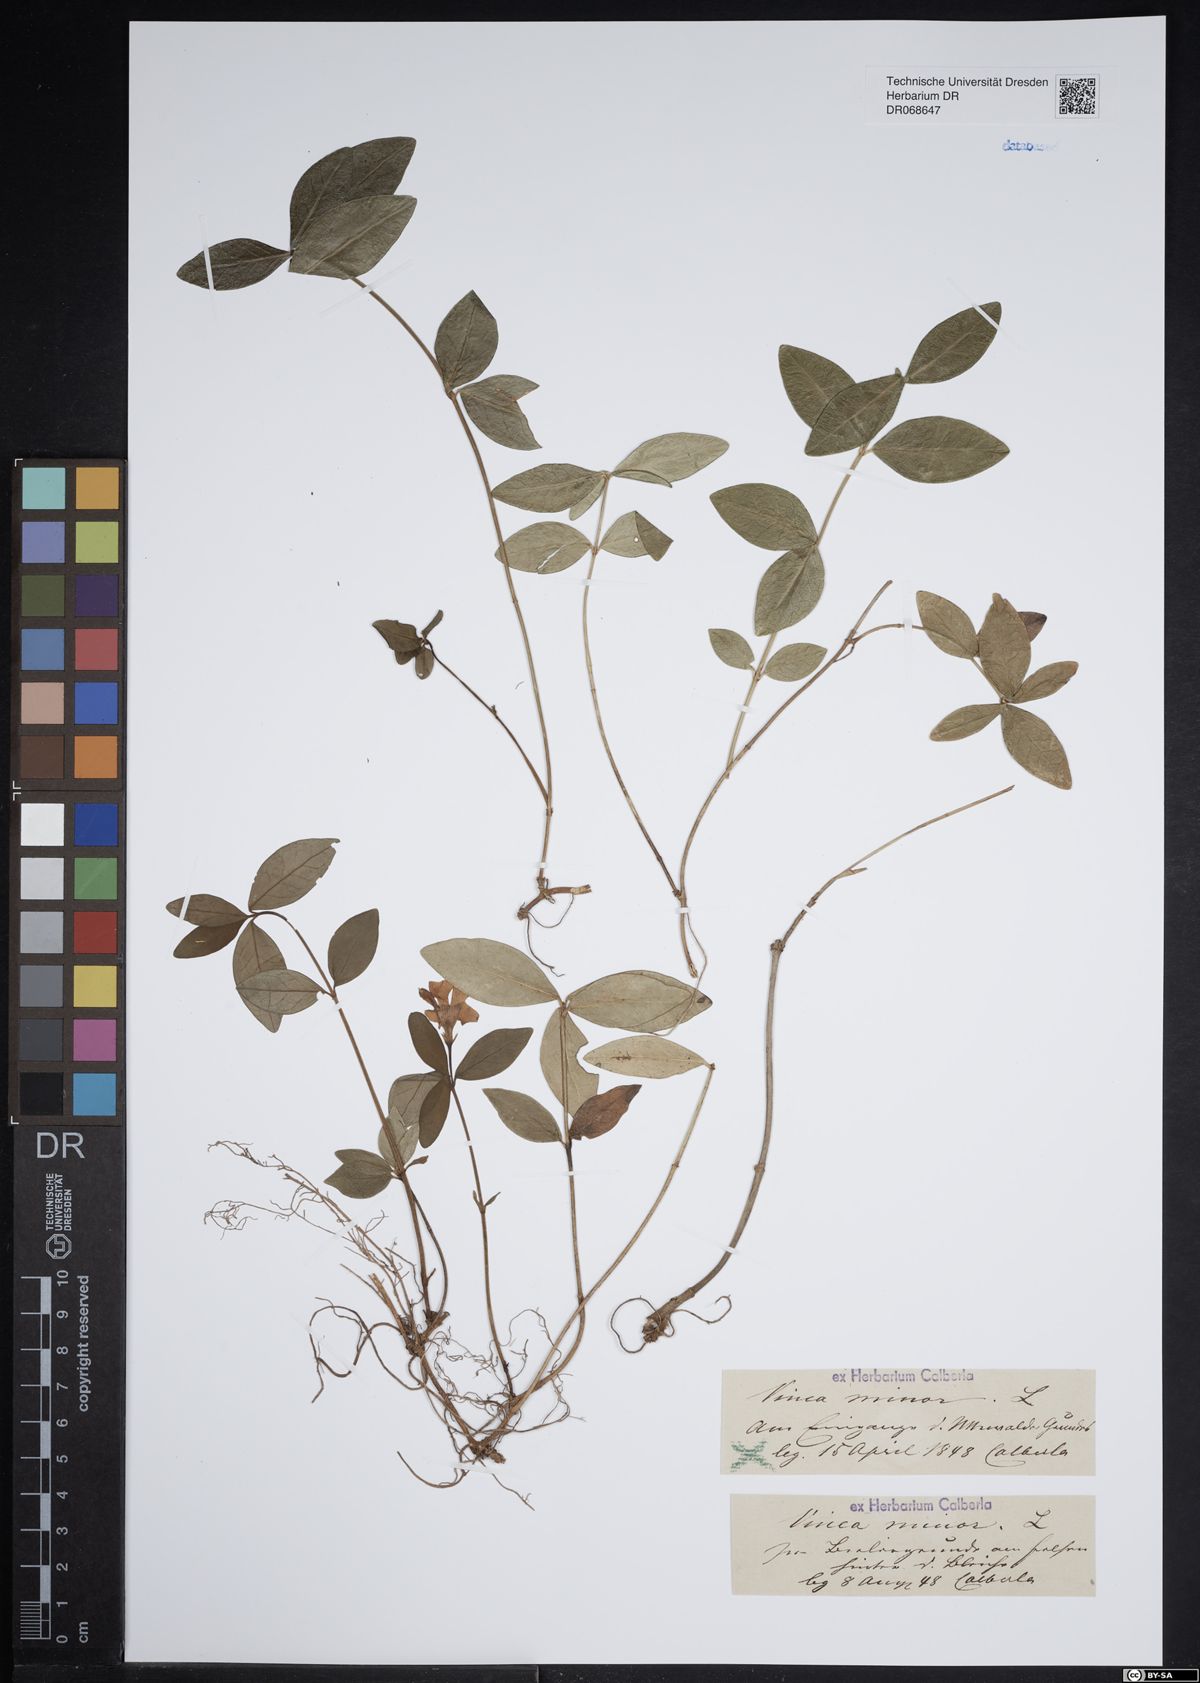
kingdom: Plantae
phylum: Tracheophyta
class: Magnoliopsida
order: Gentianales
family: Apocynaceae
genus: Vinca
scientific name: Vinca minor
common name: Lesser periwinkle
